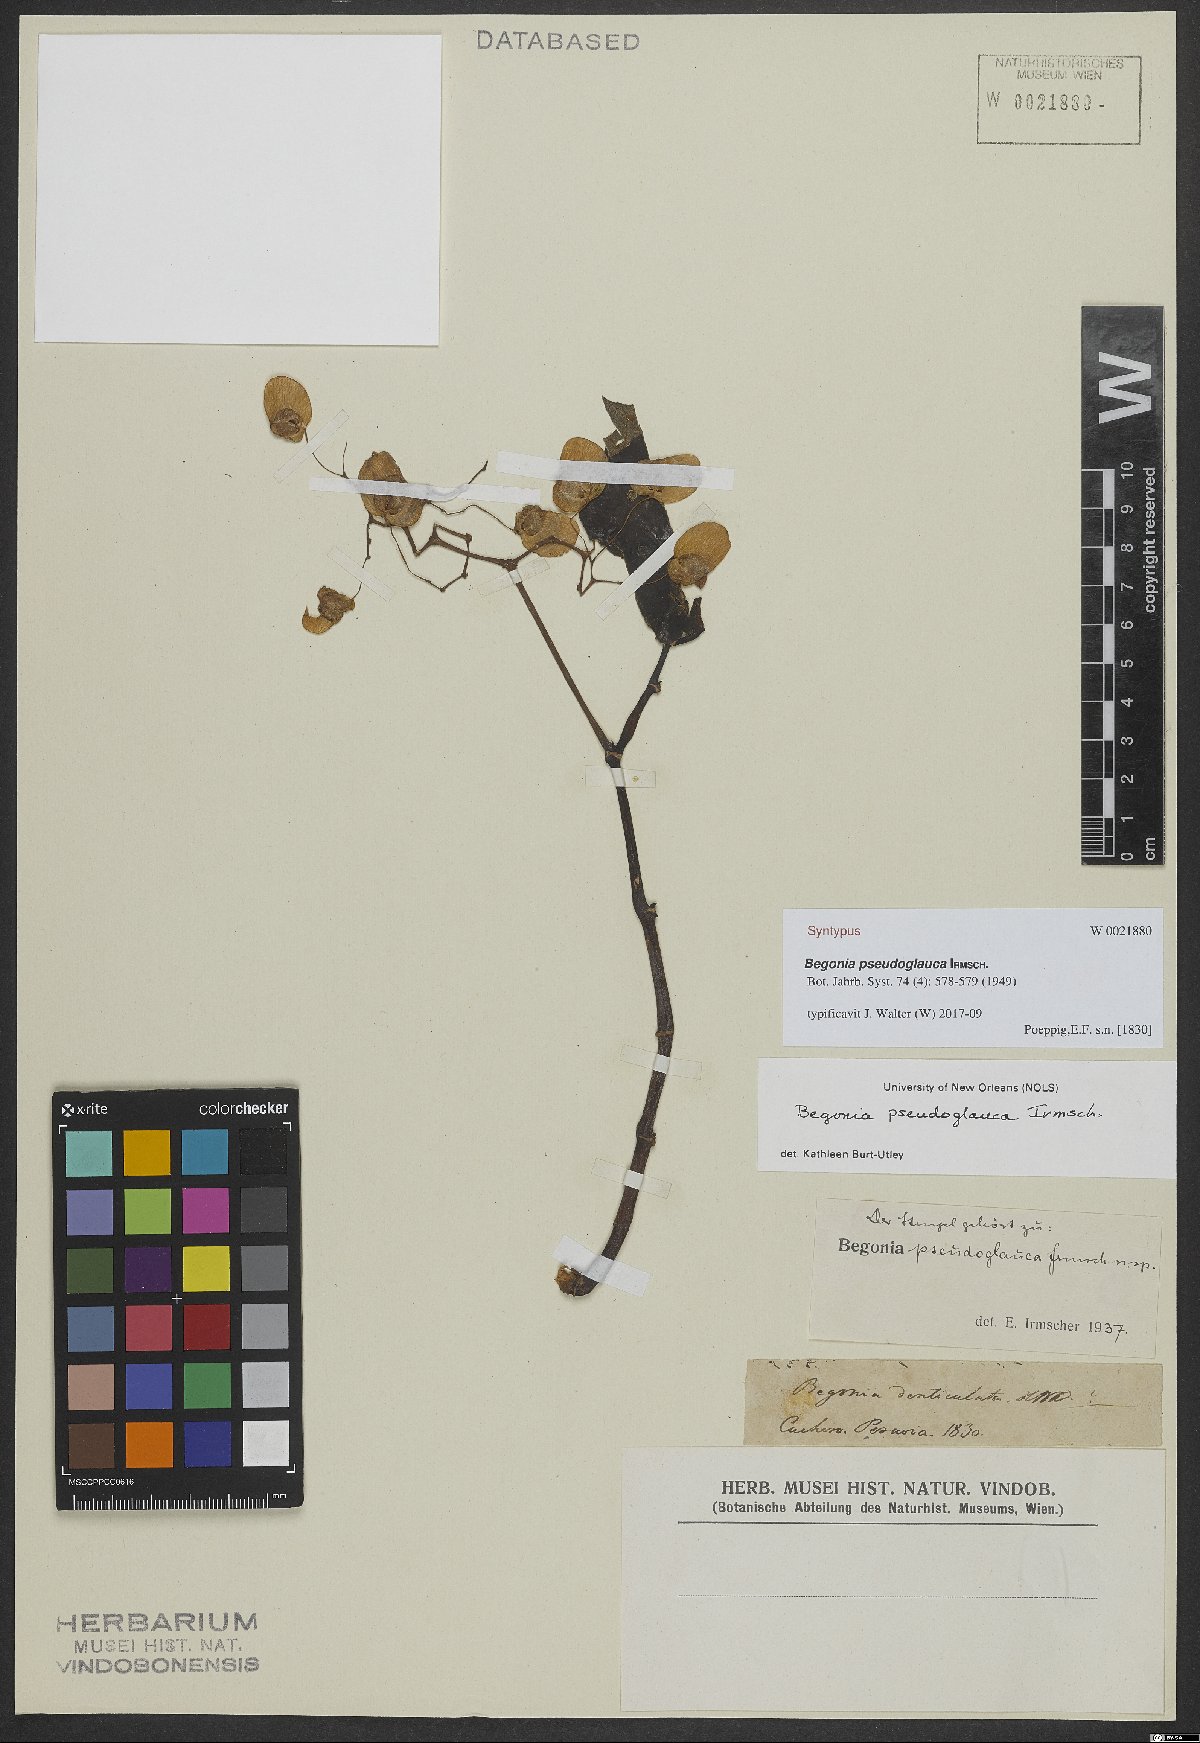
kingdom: Plantae
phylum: Tracheophyta
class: Magnoliopsida
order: Cucurbitales
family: Begoniaceae
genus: Begonia
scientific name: Begonia pseudoglauca
